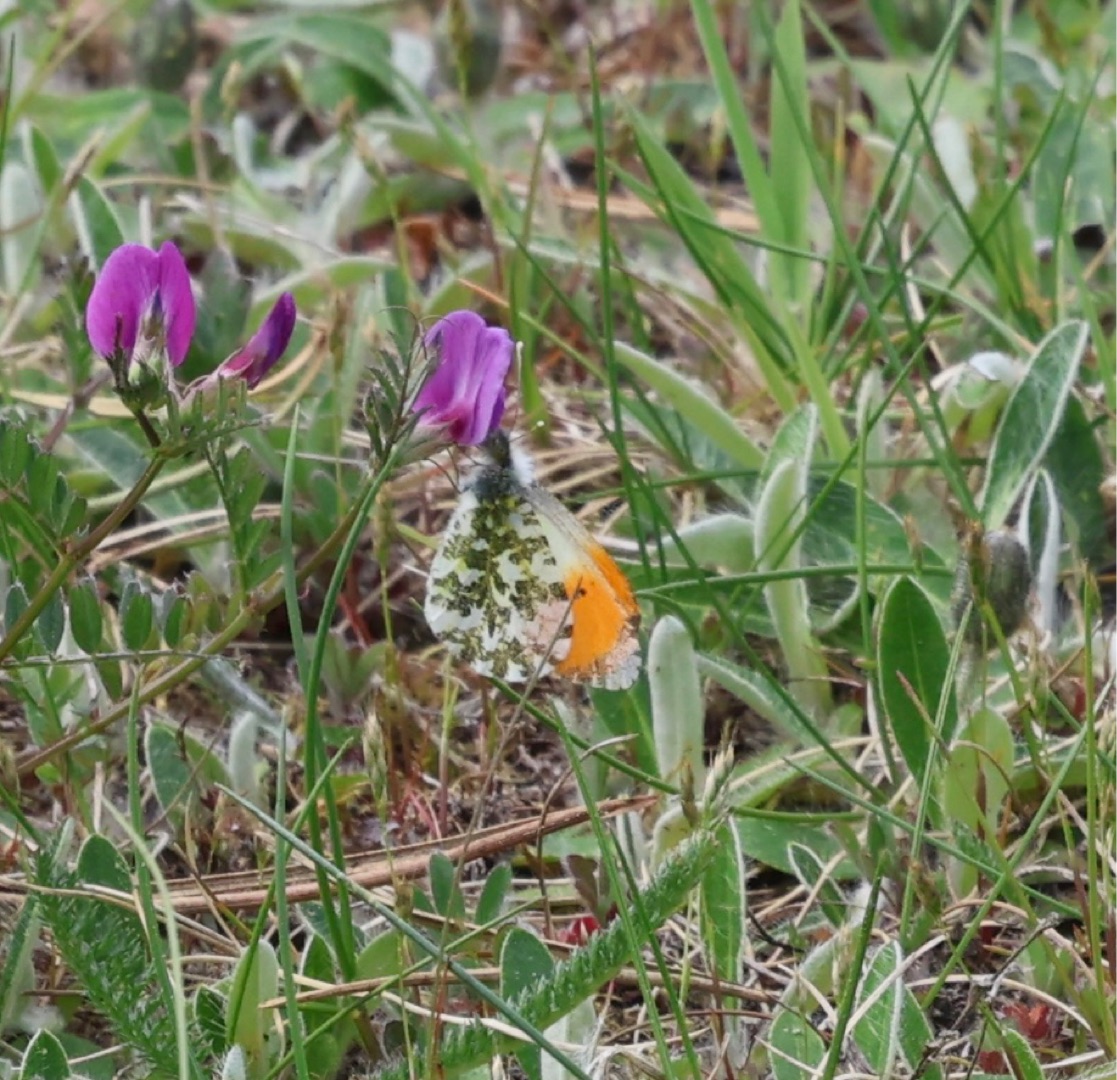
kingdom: Animalia
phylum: Arthropoda
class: Insecta
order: Lepidoptera
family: Pieridae
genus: Anthocharis
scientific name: Anthocharis cardamines
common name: Aurora
